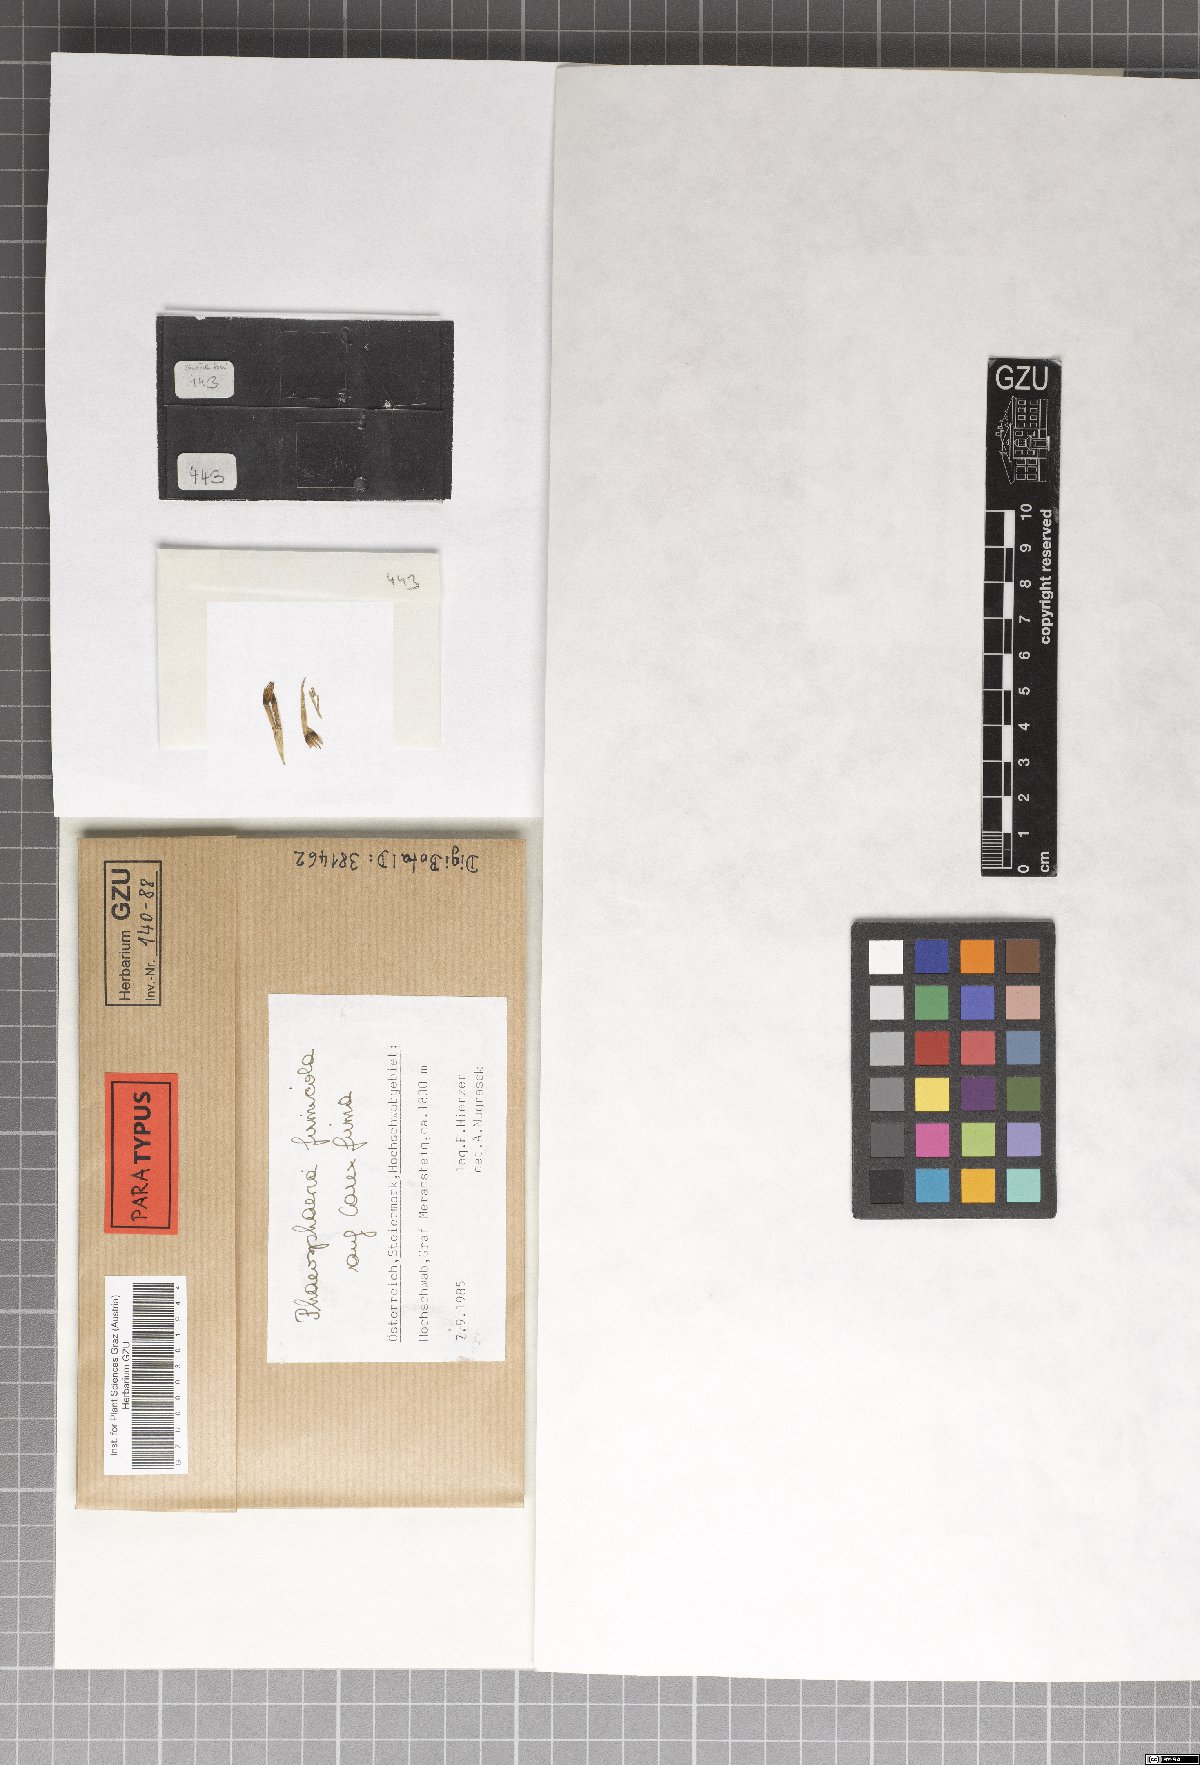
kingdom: Fungi
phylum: Ascomycota
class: Dothideomycetes
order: Pleosporales
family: Phaeosphaeriaceae
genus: Phaeosphaeria
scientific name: Phaeosphaeria firmicola
